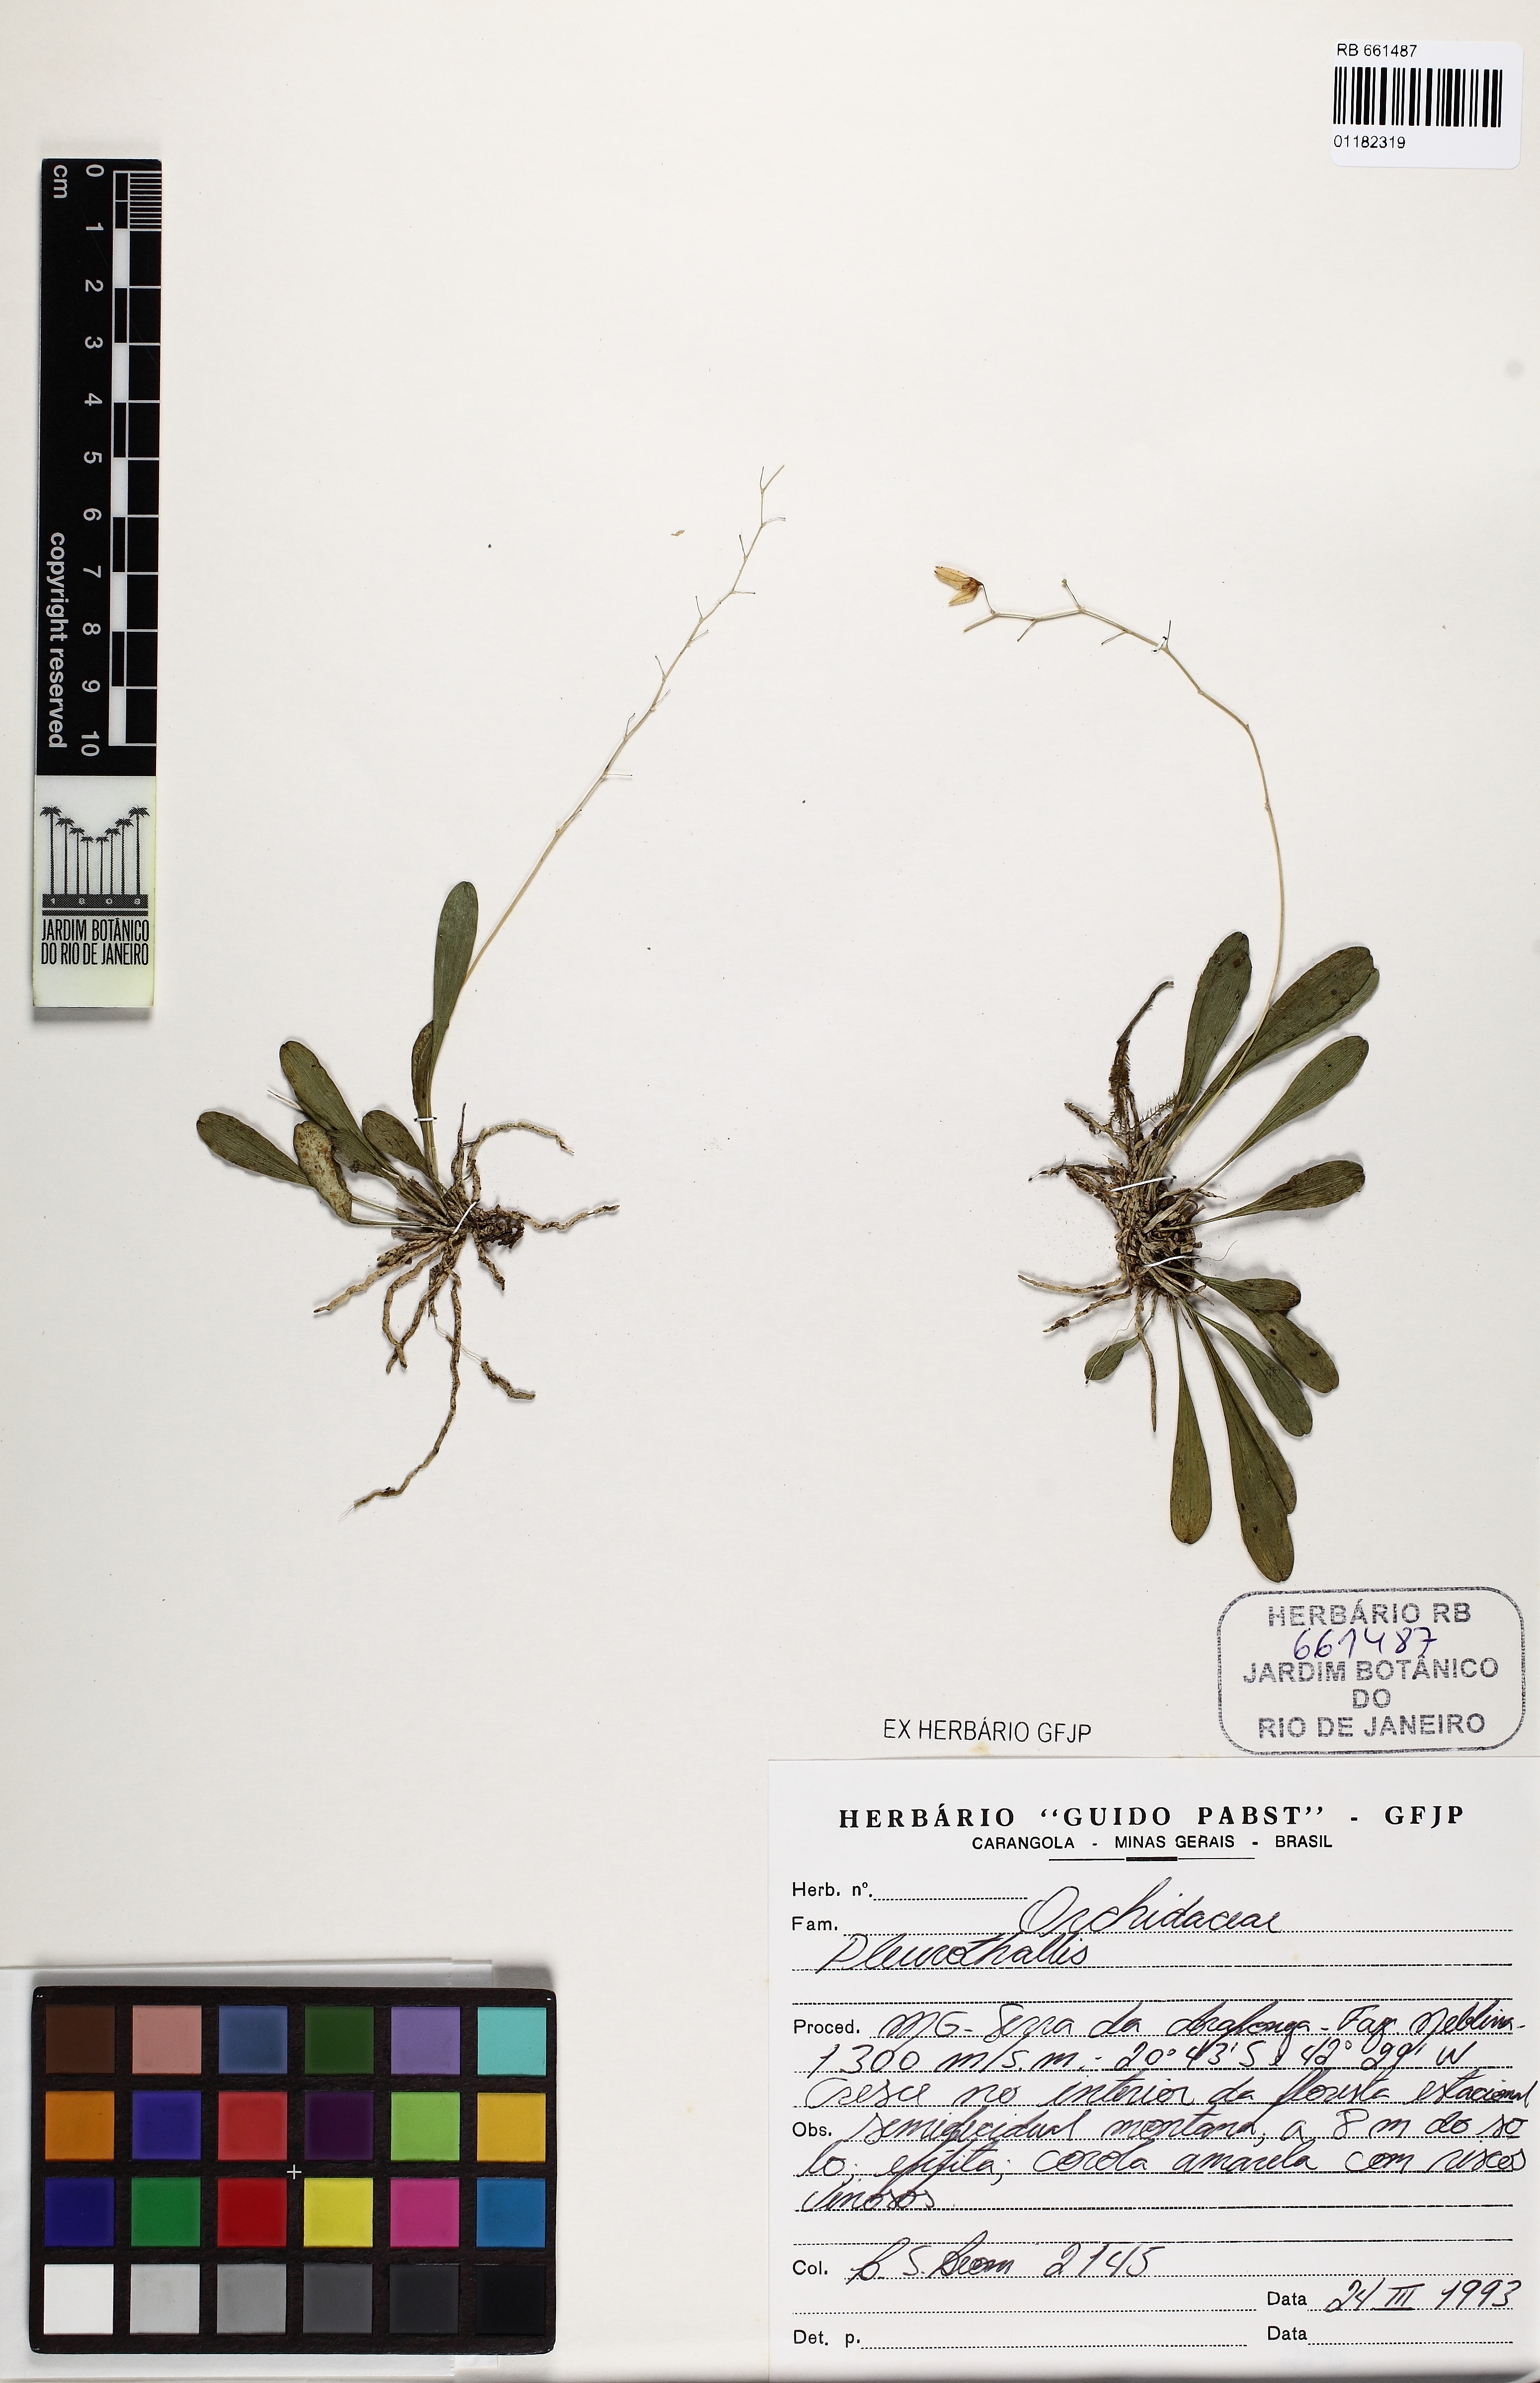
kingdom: Plantae
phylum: Tracheophyta
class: Liliopsida
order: Asparagales
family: Orchidaceae
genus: Specklinia
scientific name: Specklinia
